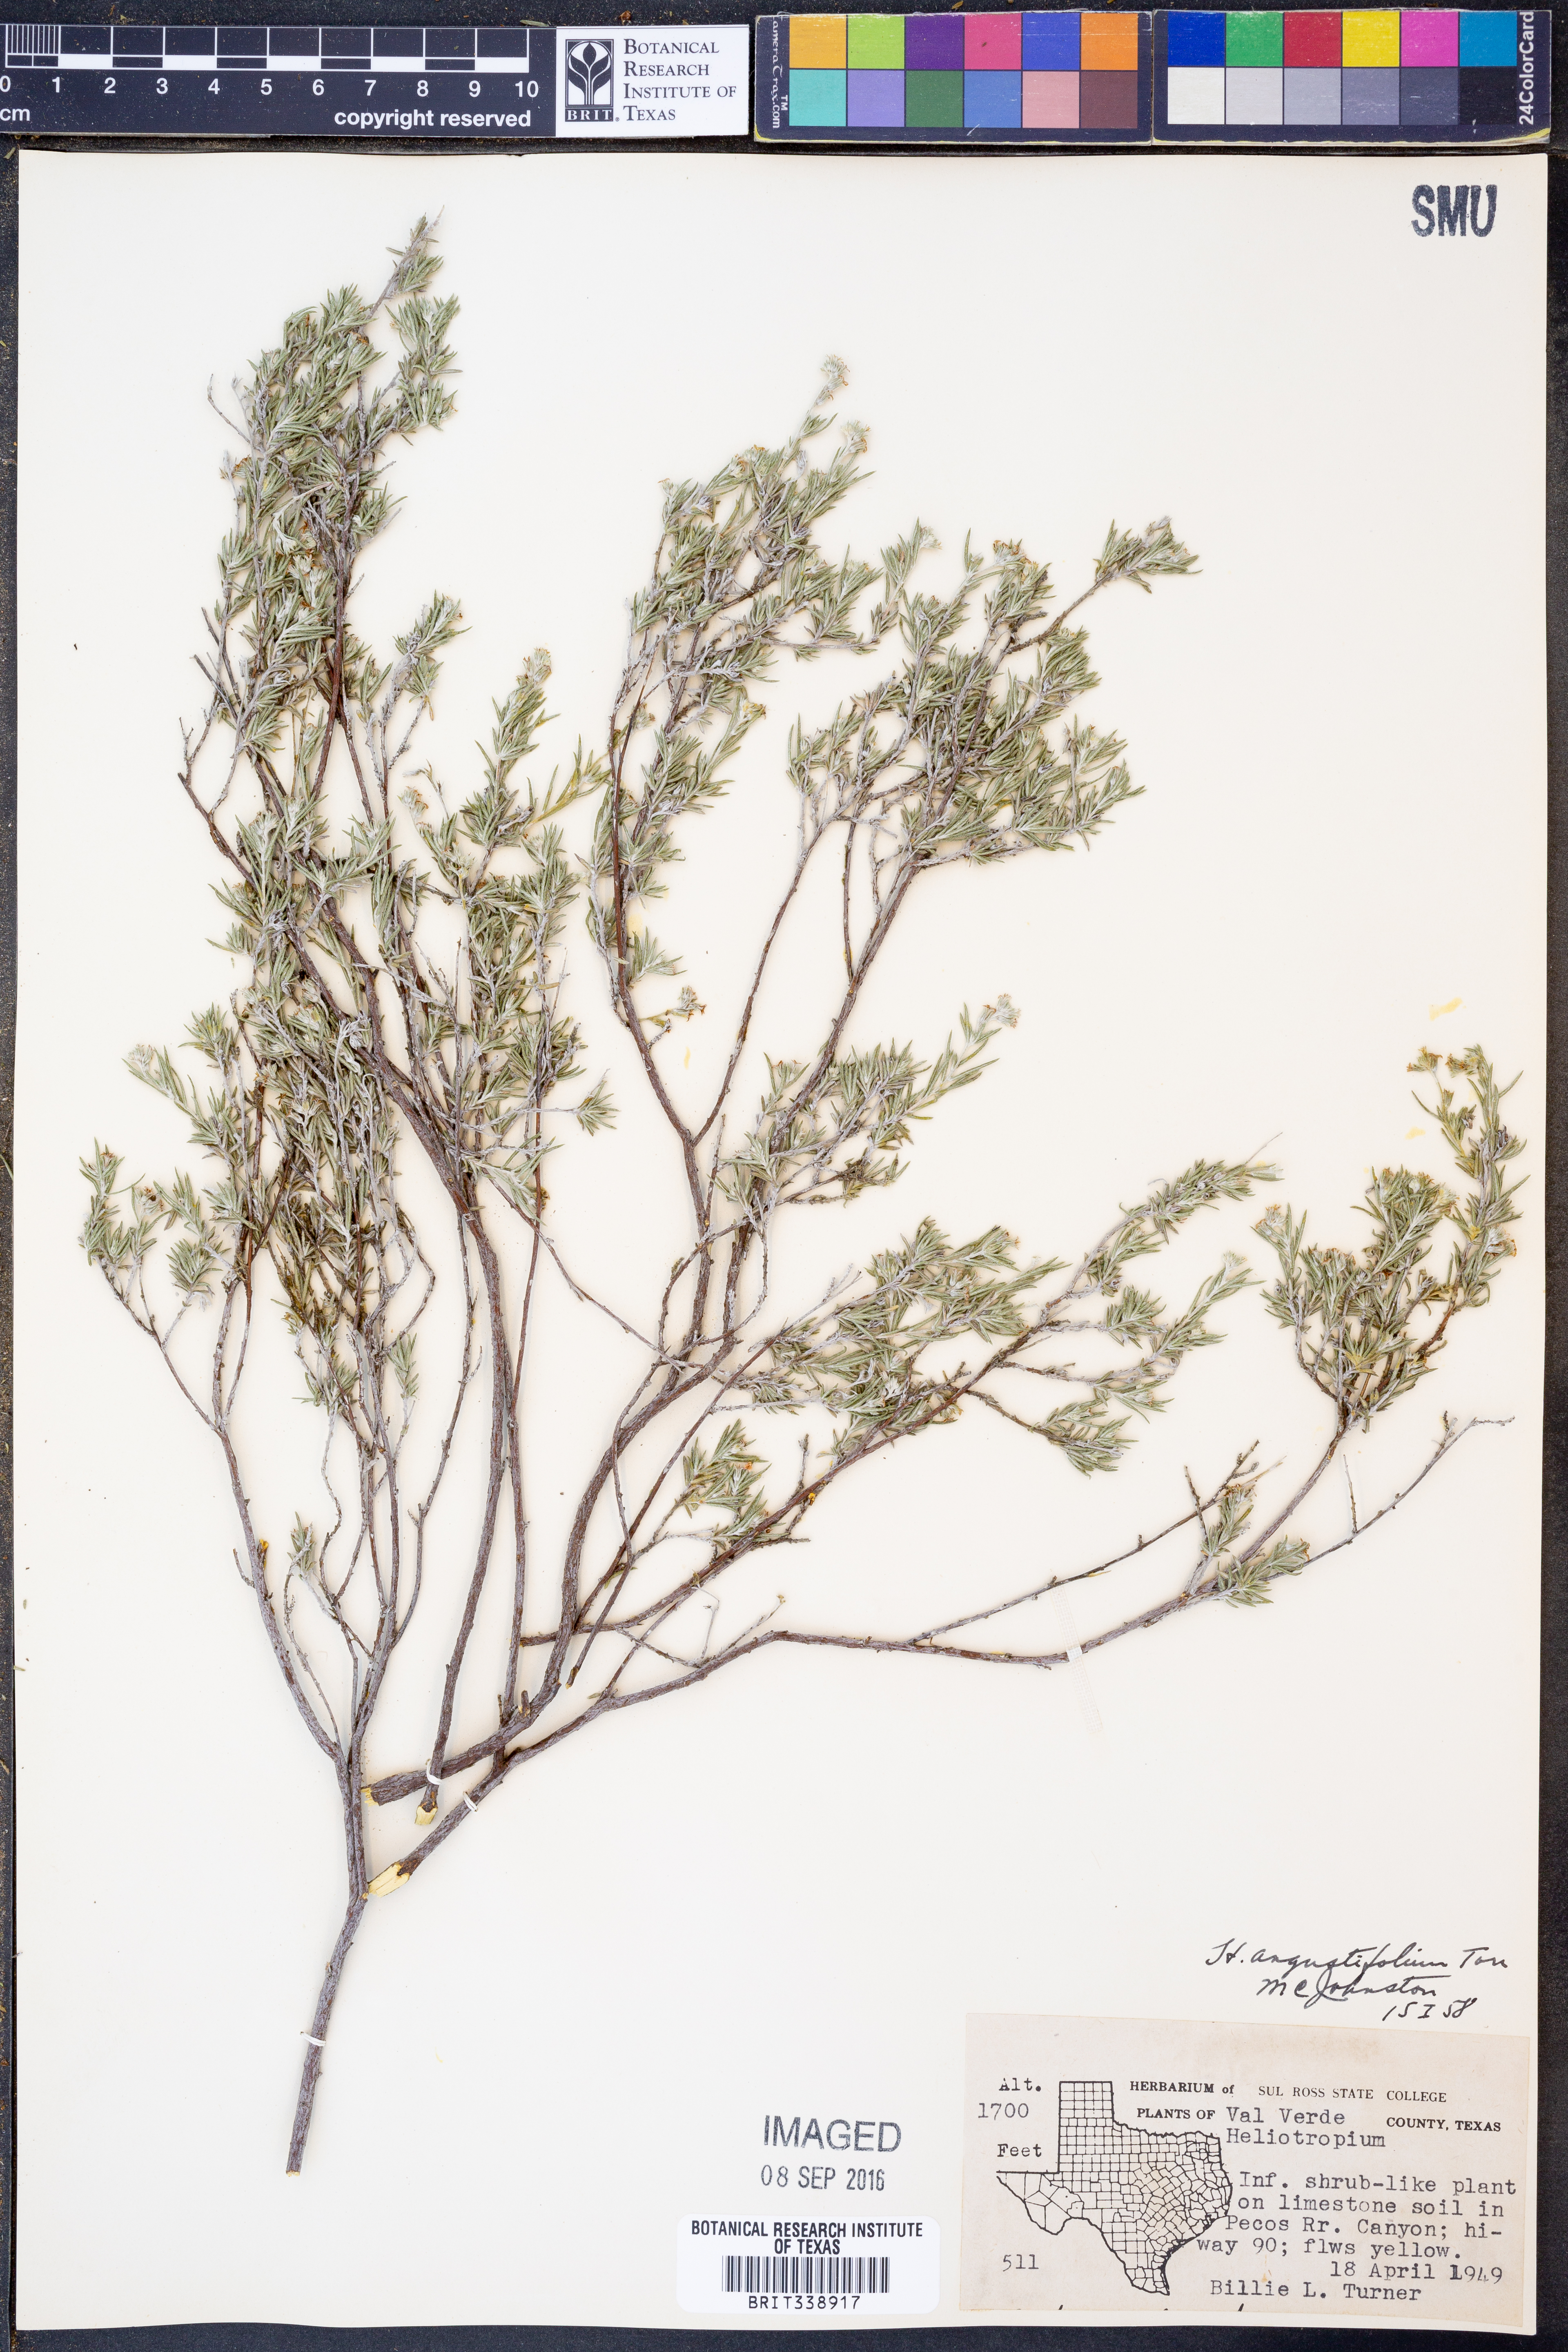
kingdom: Plantae
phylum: Tracheophyta
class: Magnoliopsida
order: Boraginales
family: Heliotropiaceae
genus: Euploca
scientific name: Euploca torreyi
